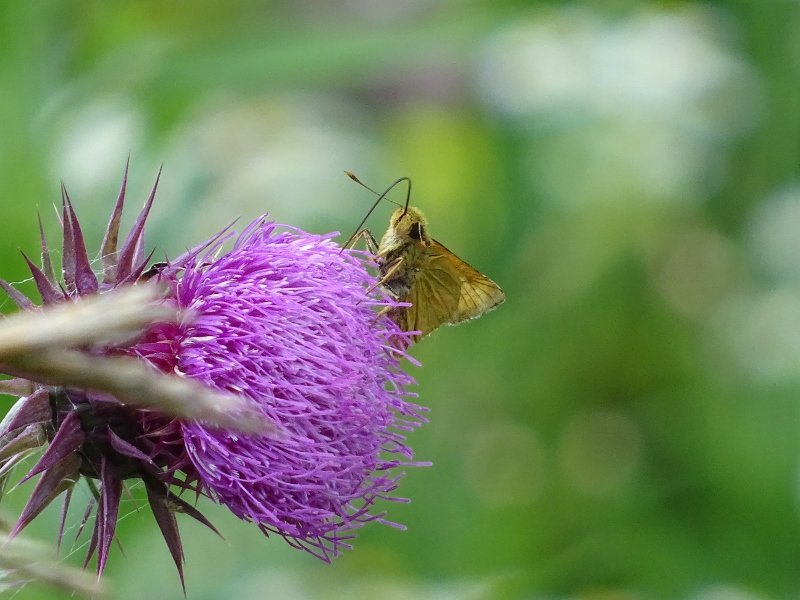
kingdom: Animalia
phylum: Arthropoda
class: Insecta
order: Lepidoptera
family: Hesperiidae
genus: Atrytone
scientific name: Atrytone delaware
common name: Delaware Skipper
